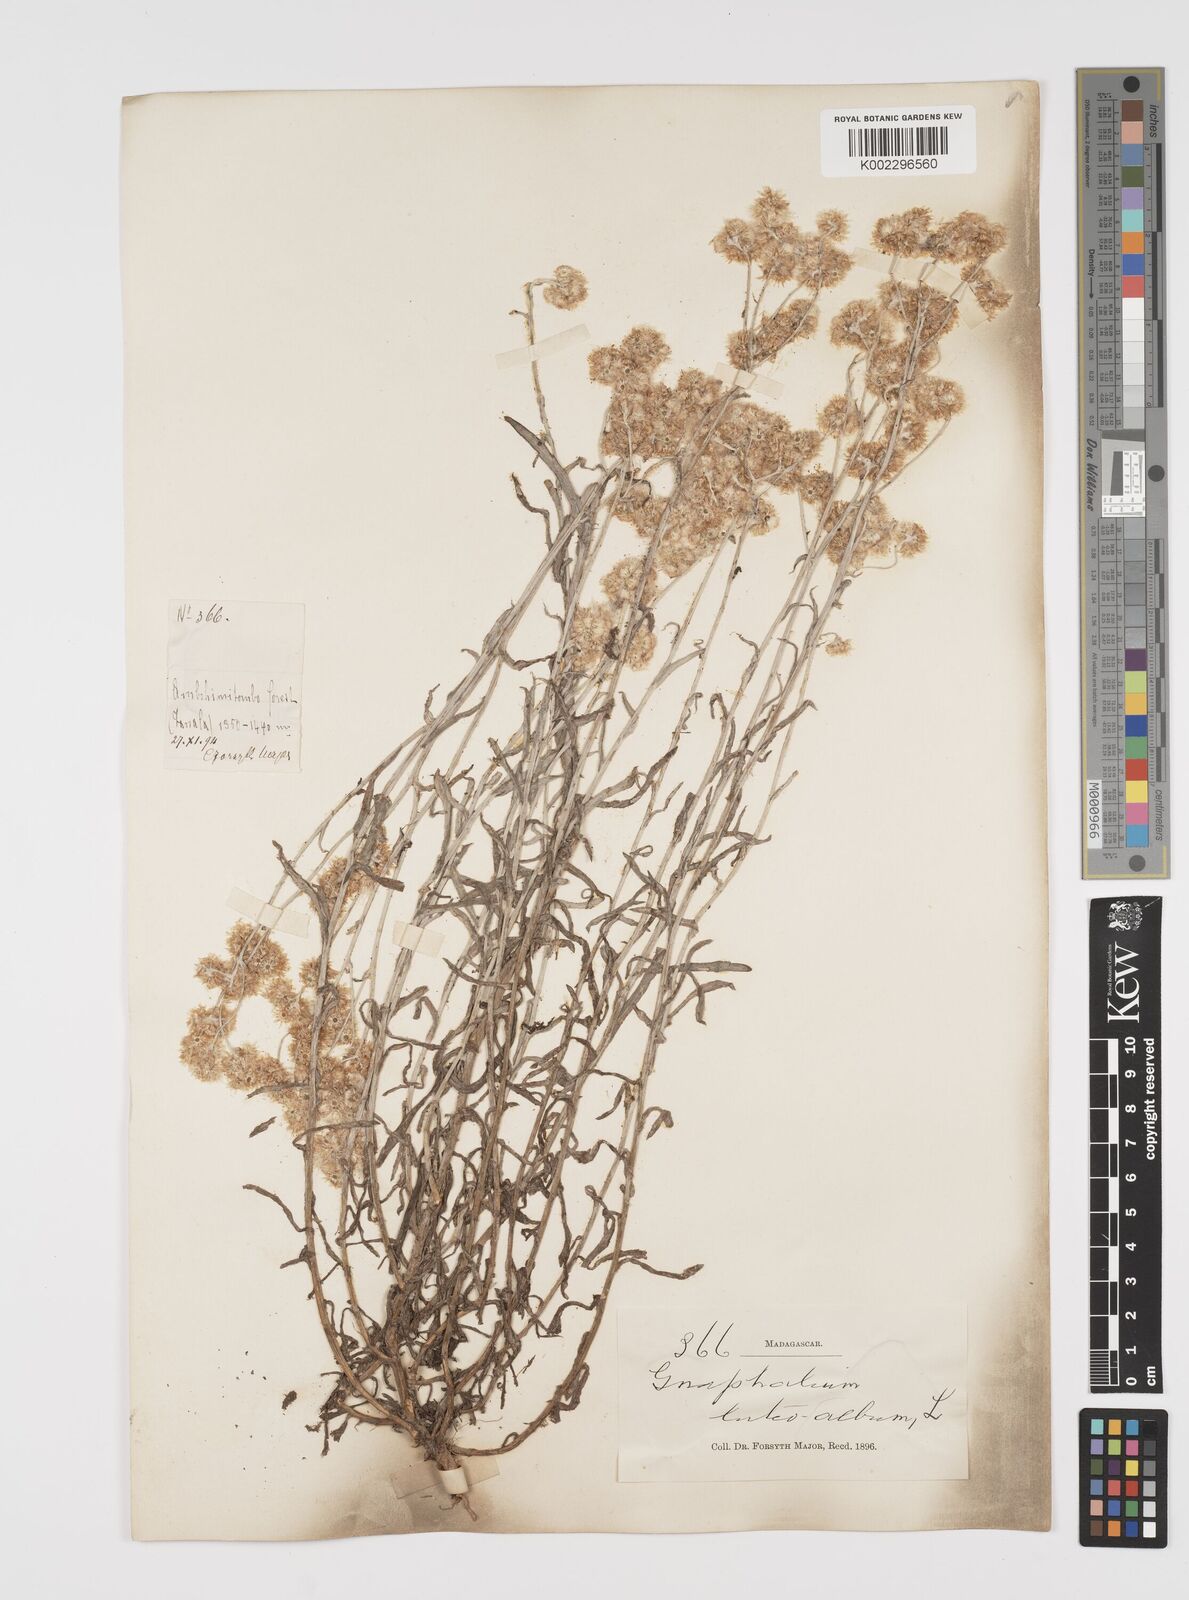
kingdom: Plantae
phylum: Tracheophyta
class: Magnoliopsida
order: Asterales
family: Asteraceae
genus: Helichrysum
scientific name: Helichrysum luteoalbum
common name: Daisy
